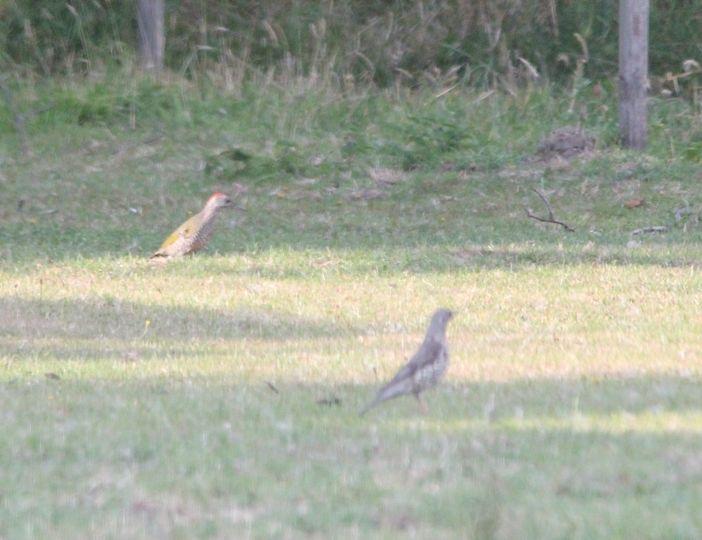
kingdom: Animalia
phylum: Chordata
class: Aves
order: Piciformes
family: Picidae
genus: Picus
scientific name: Picus viridis
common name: Grønspætte
